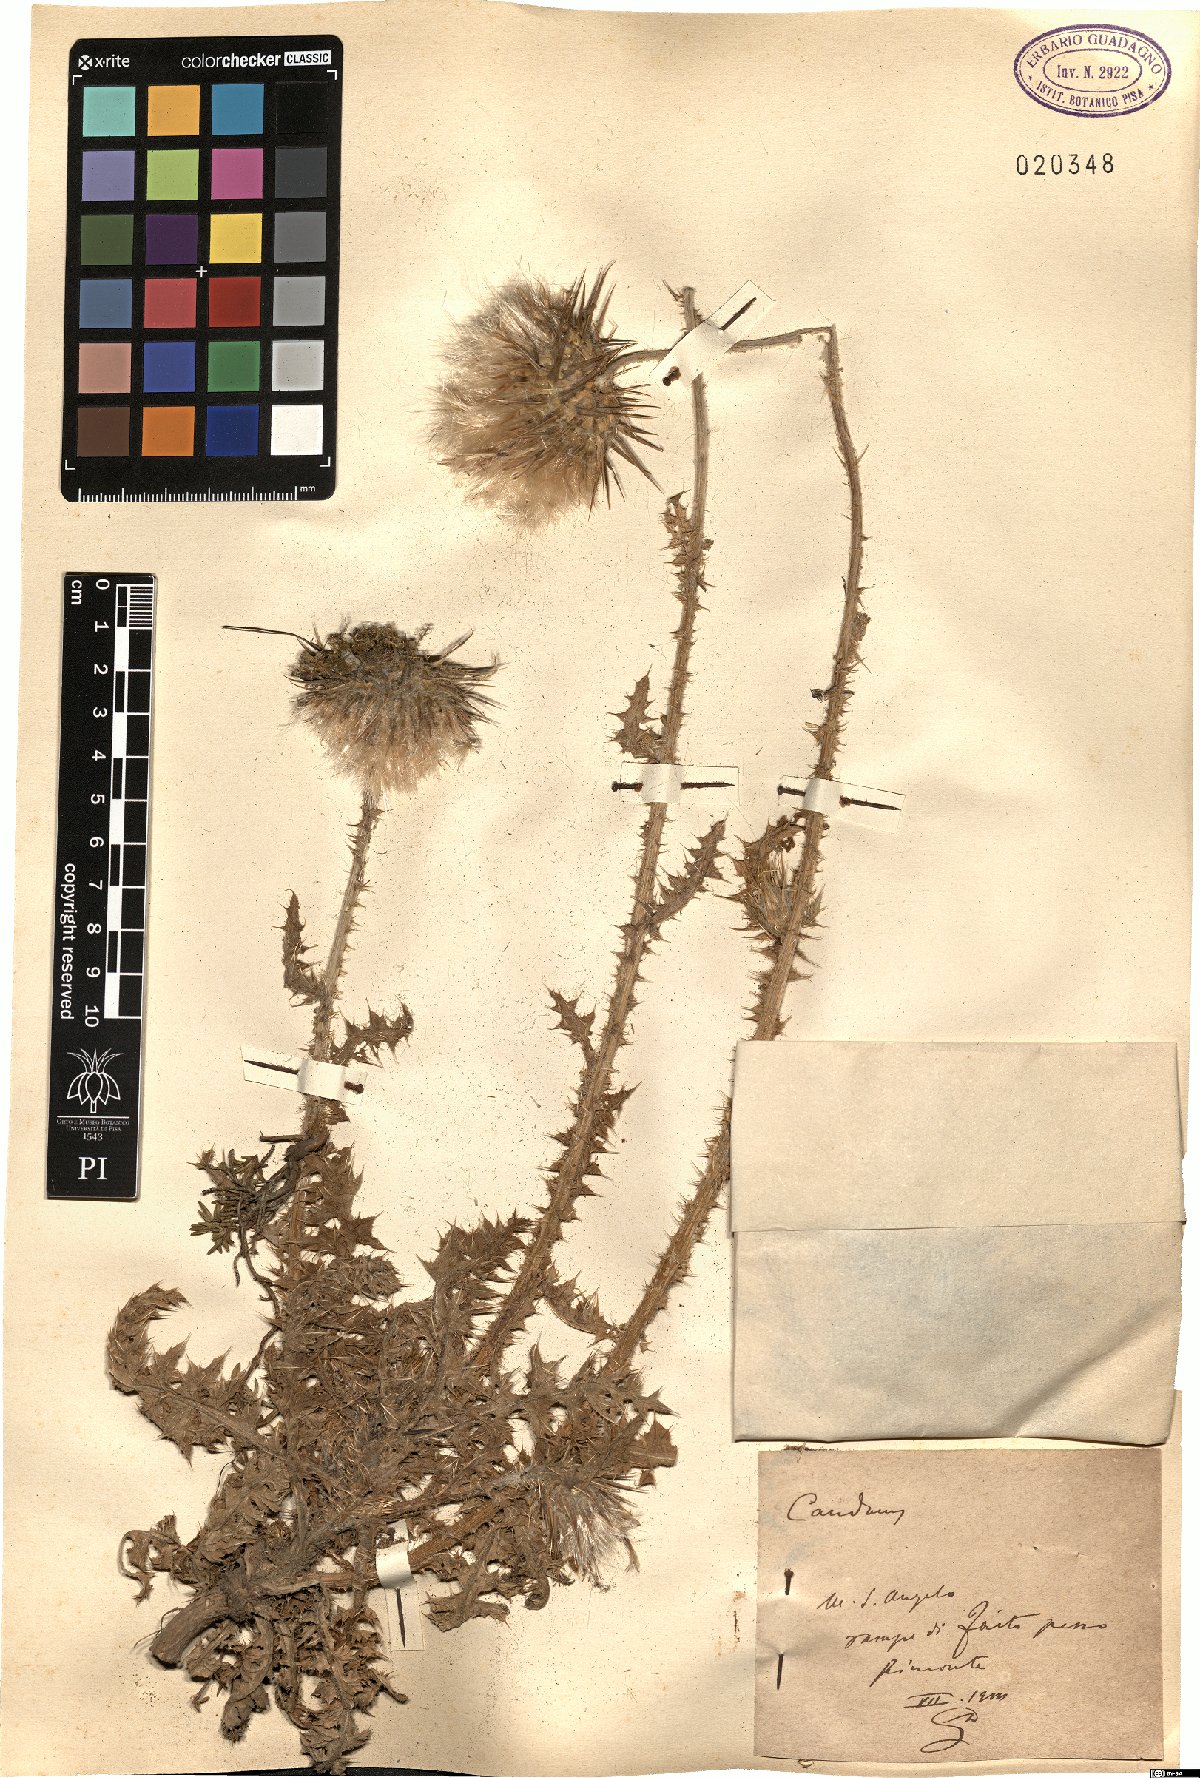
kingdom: Plantae
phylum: Tracheophyta
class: Magnoliopsida
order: Asterales
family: Asteraceae
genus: Carduus
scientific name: Carduus
